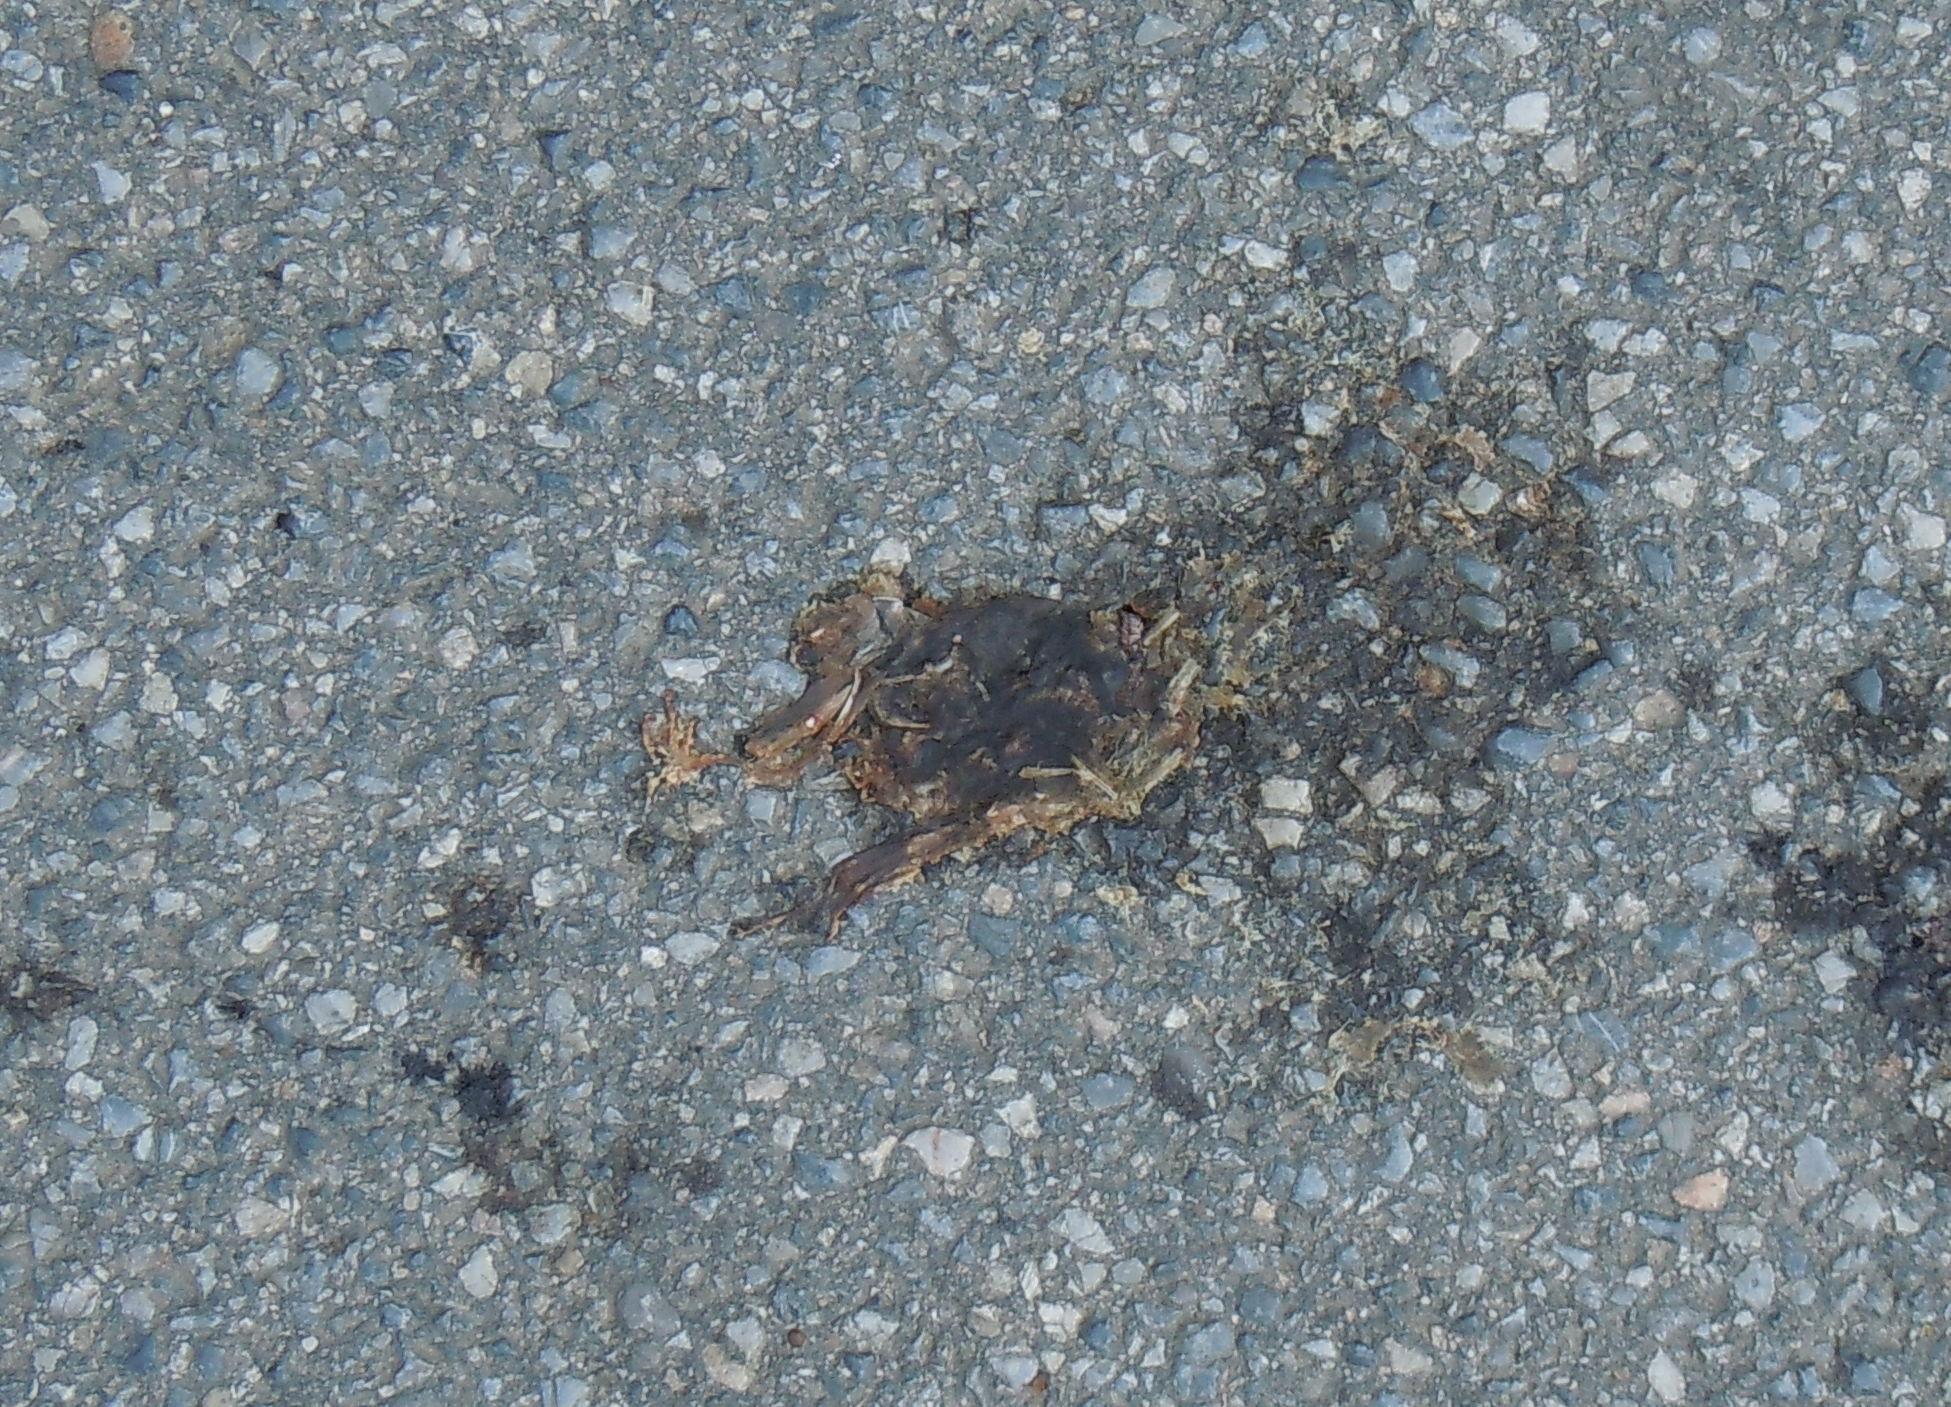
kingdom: Animalia
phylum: Chordata
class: Amphibia
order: Anura
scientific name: Anura
